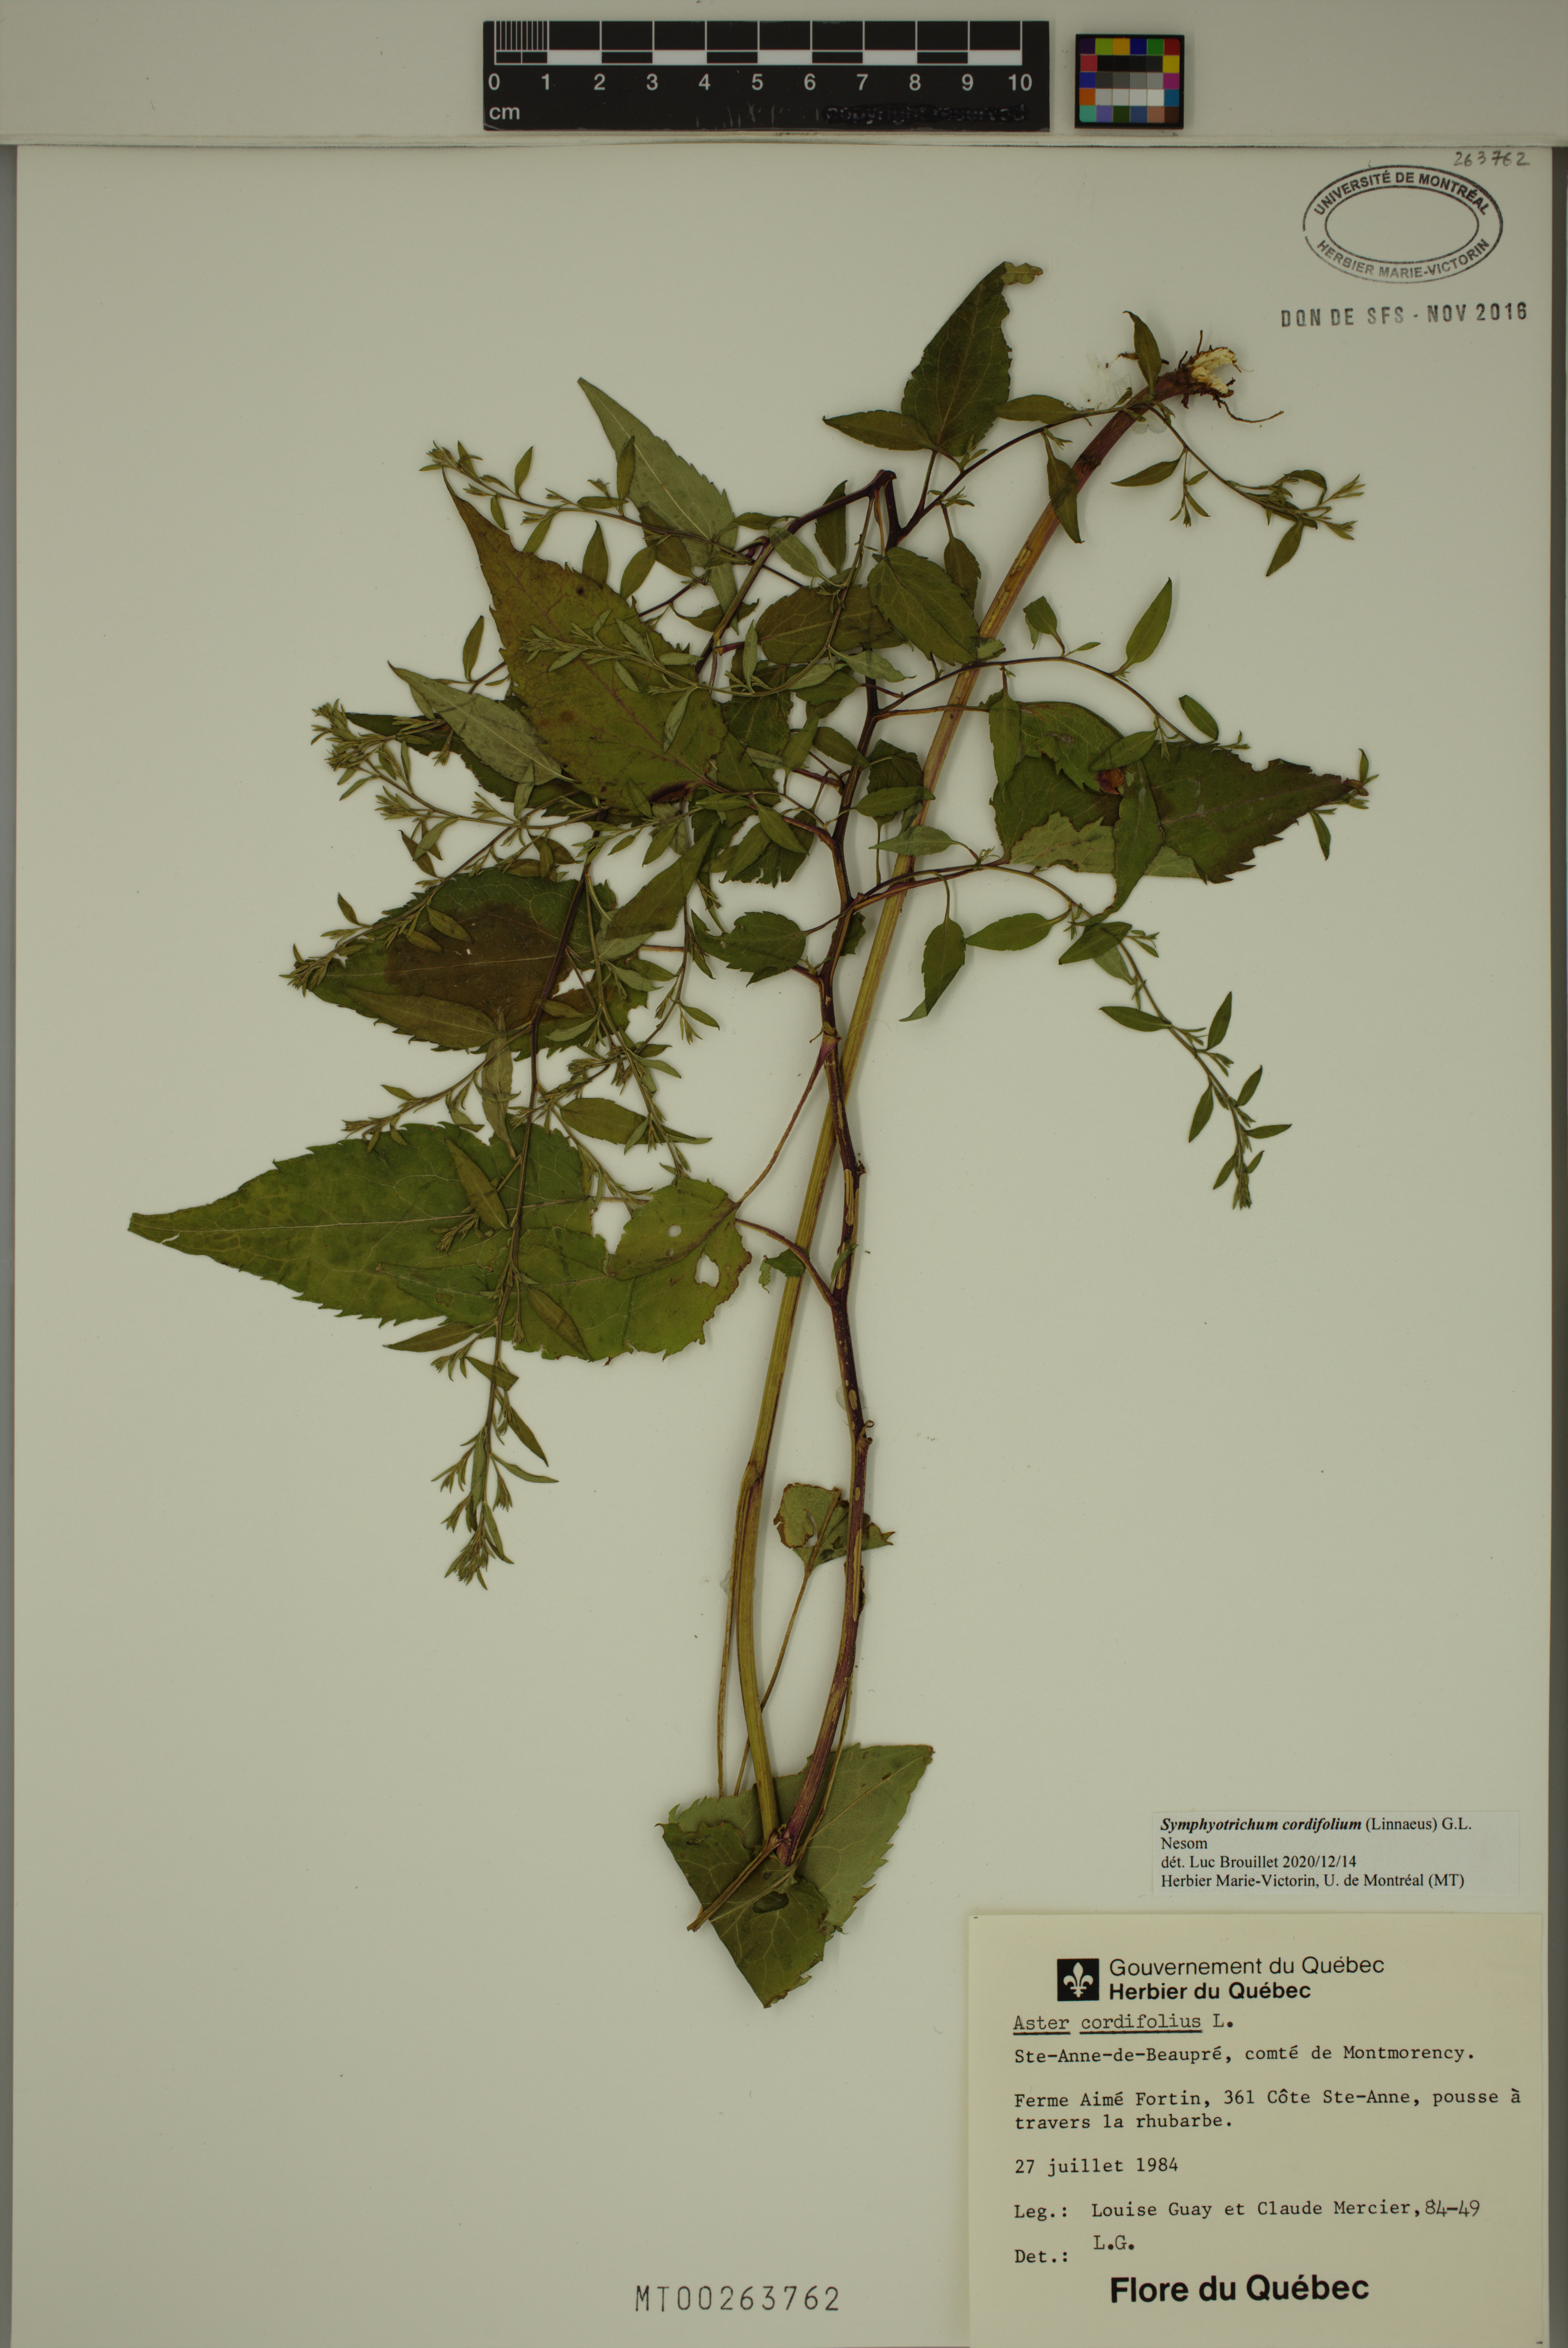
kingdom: Plantae
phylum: Tracheophyta
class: Magnoliopsida
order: Asterales
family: Asteraceae
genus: Symphyotrichum
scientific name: Symphyotrichum cordifolium
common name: Beeweed
